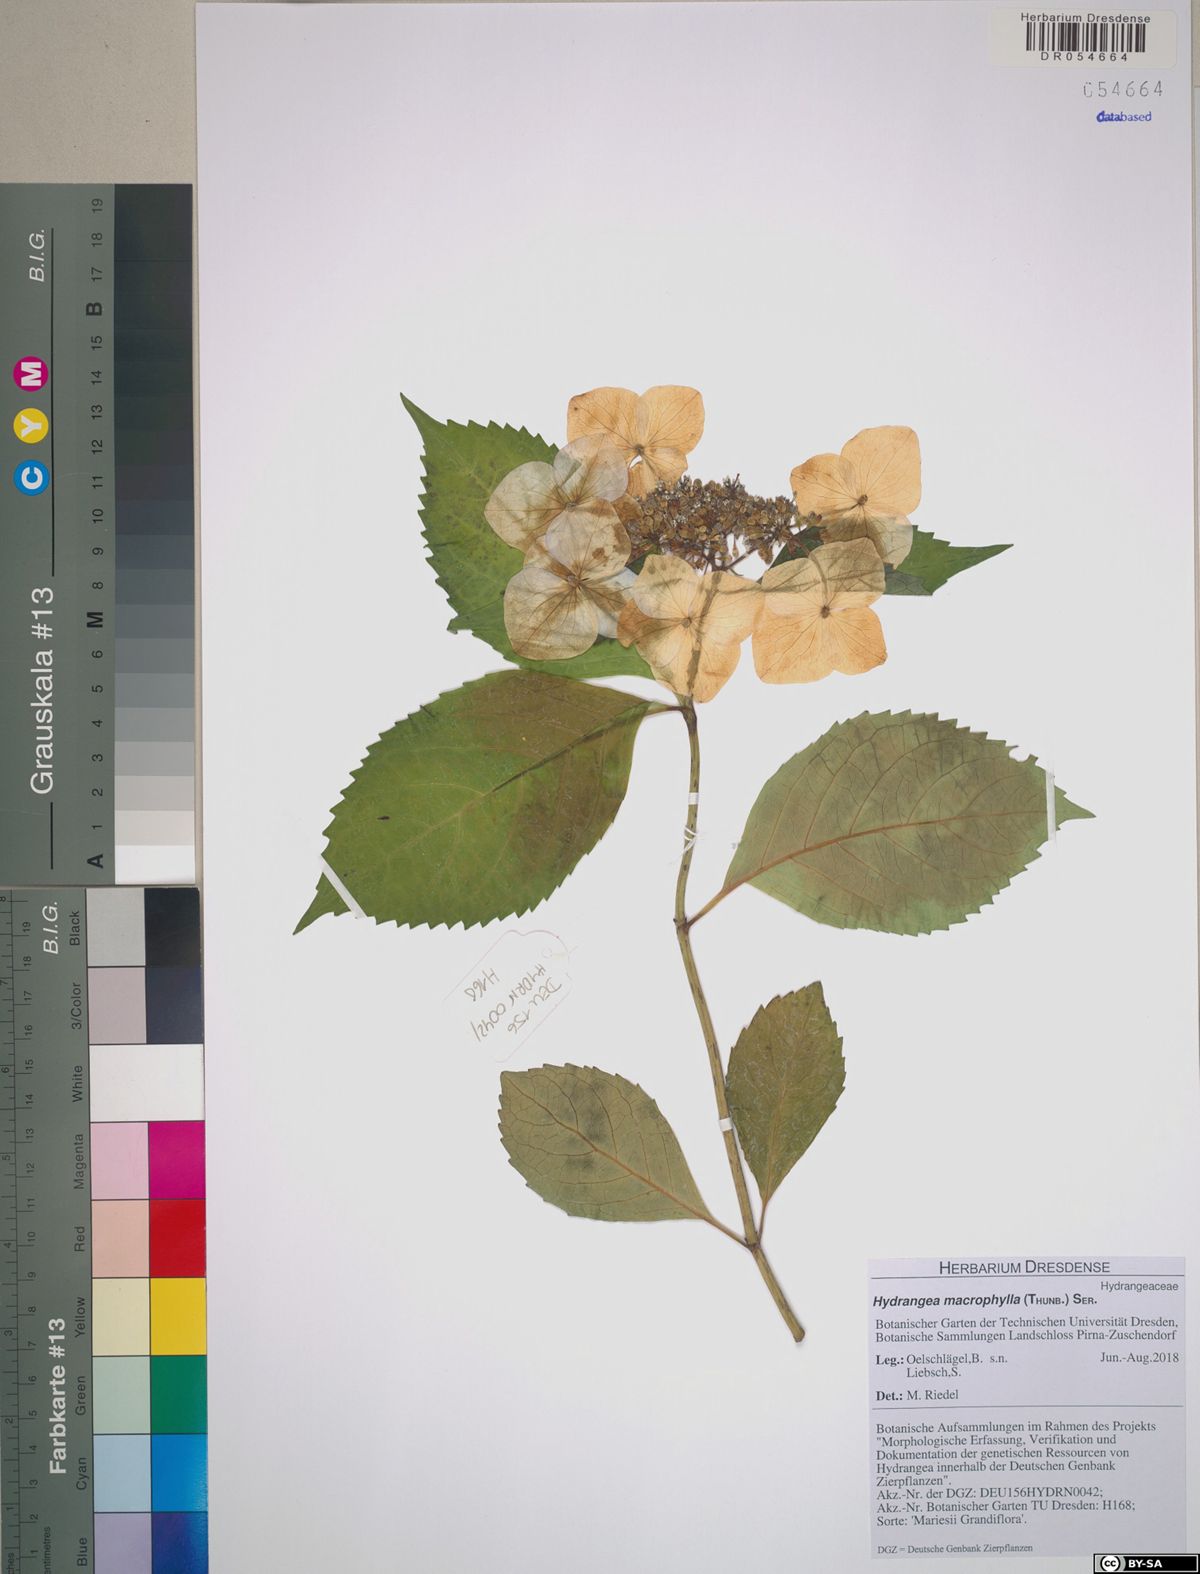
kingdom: Plantae
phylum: Tracheophyta
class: Magnoliopsida
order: Cornales
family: Hydrangeaceae
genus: Hydrangea
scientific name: Hydrangea macrophylla
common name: Hydrangea
